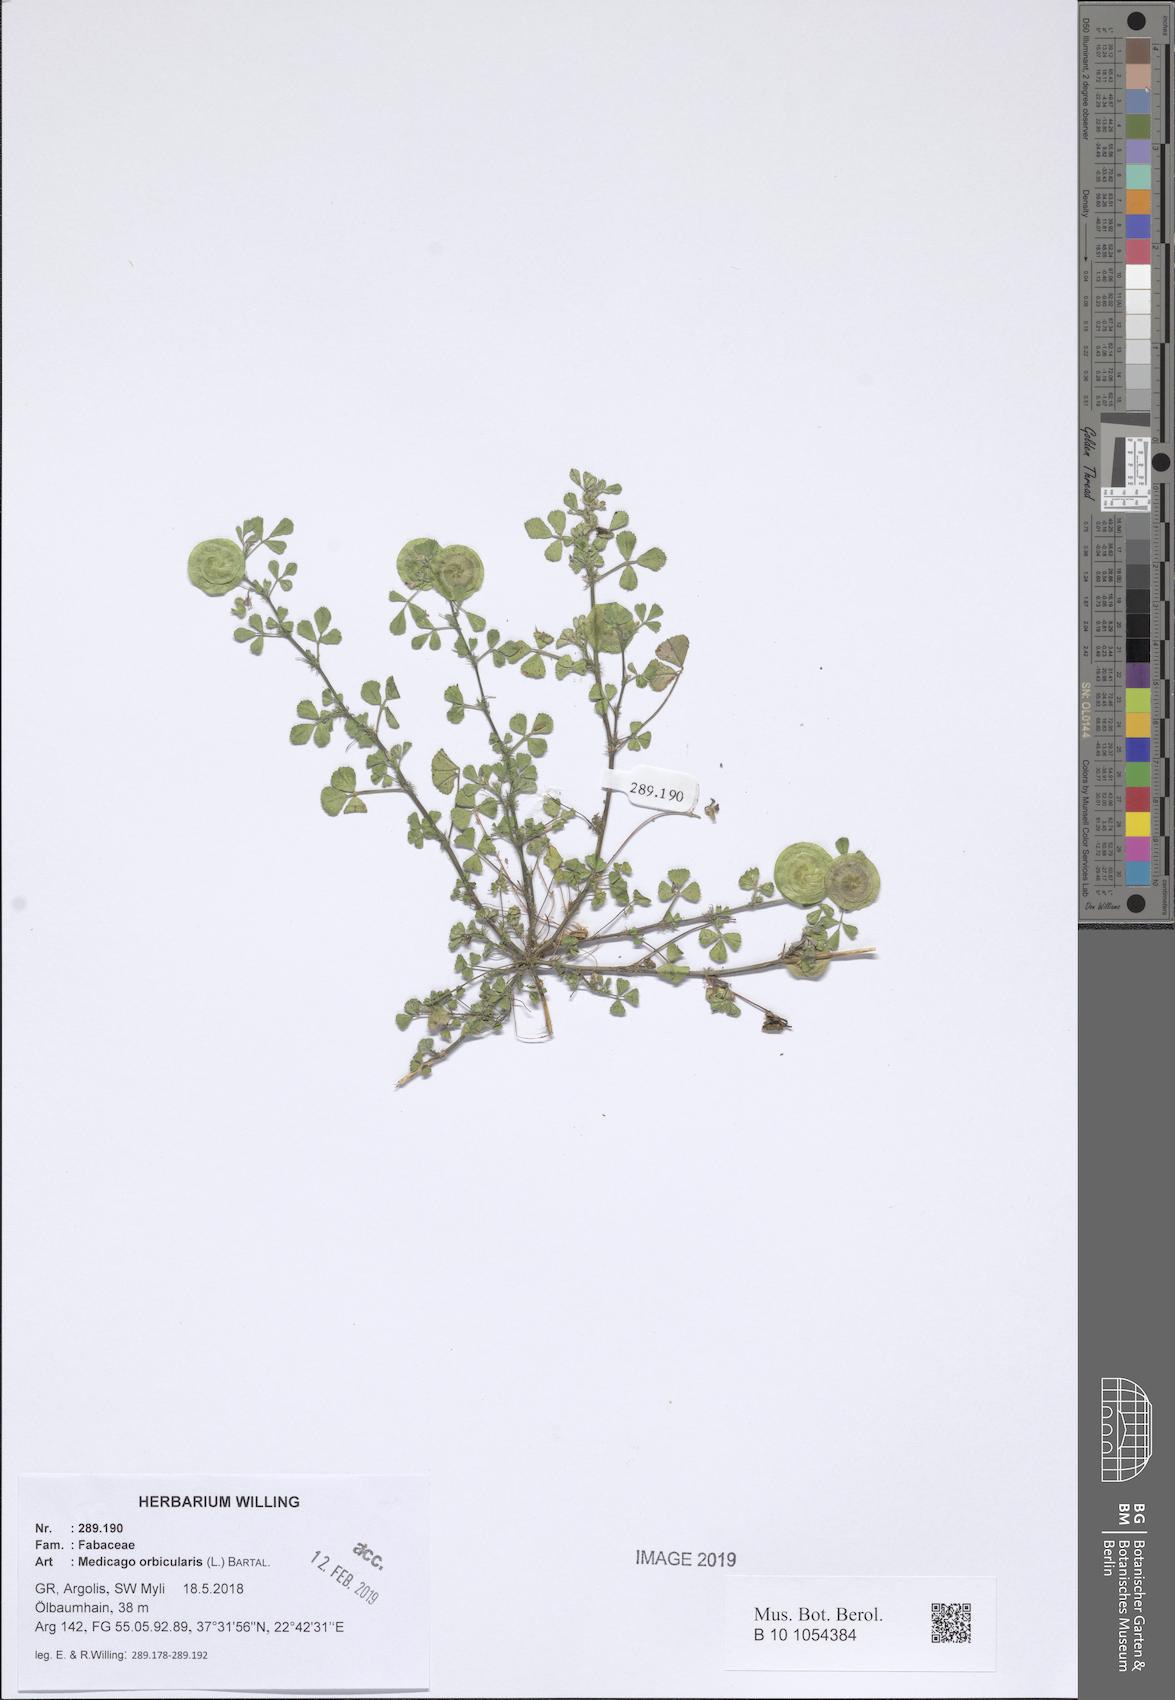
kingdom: Plantae
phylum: Tracheophyta
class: Magnoliopsida
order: Fabales
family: Fabaceae
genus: Medicago
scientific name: Medicago orbicularis
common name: Button medick
